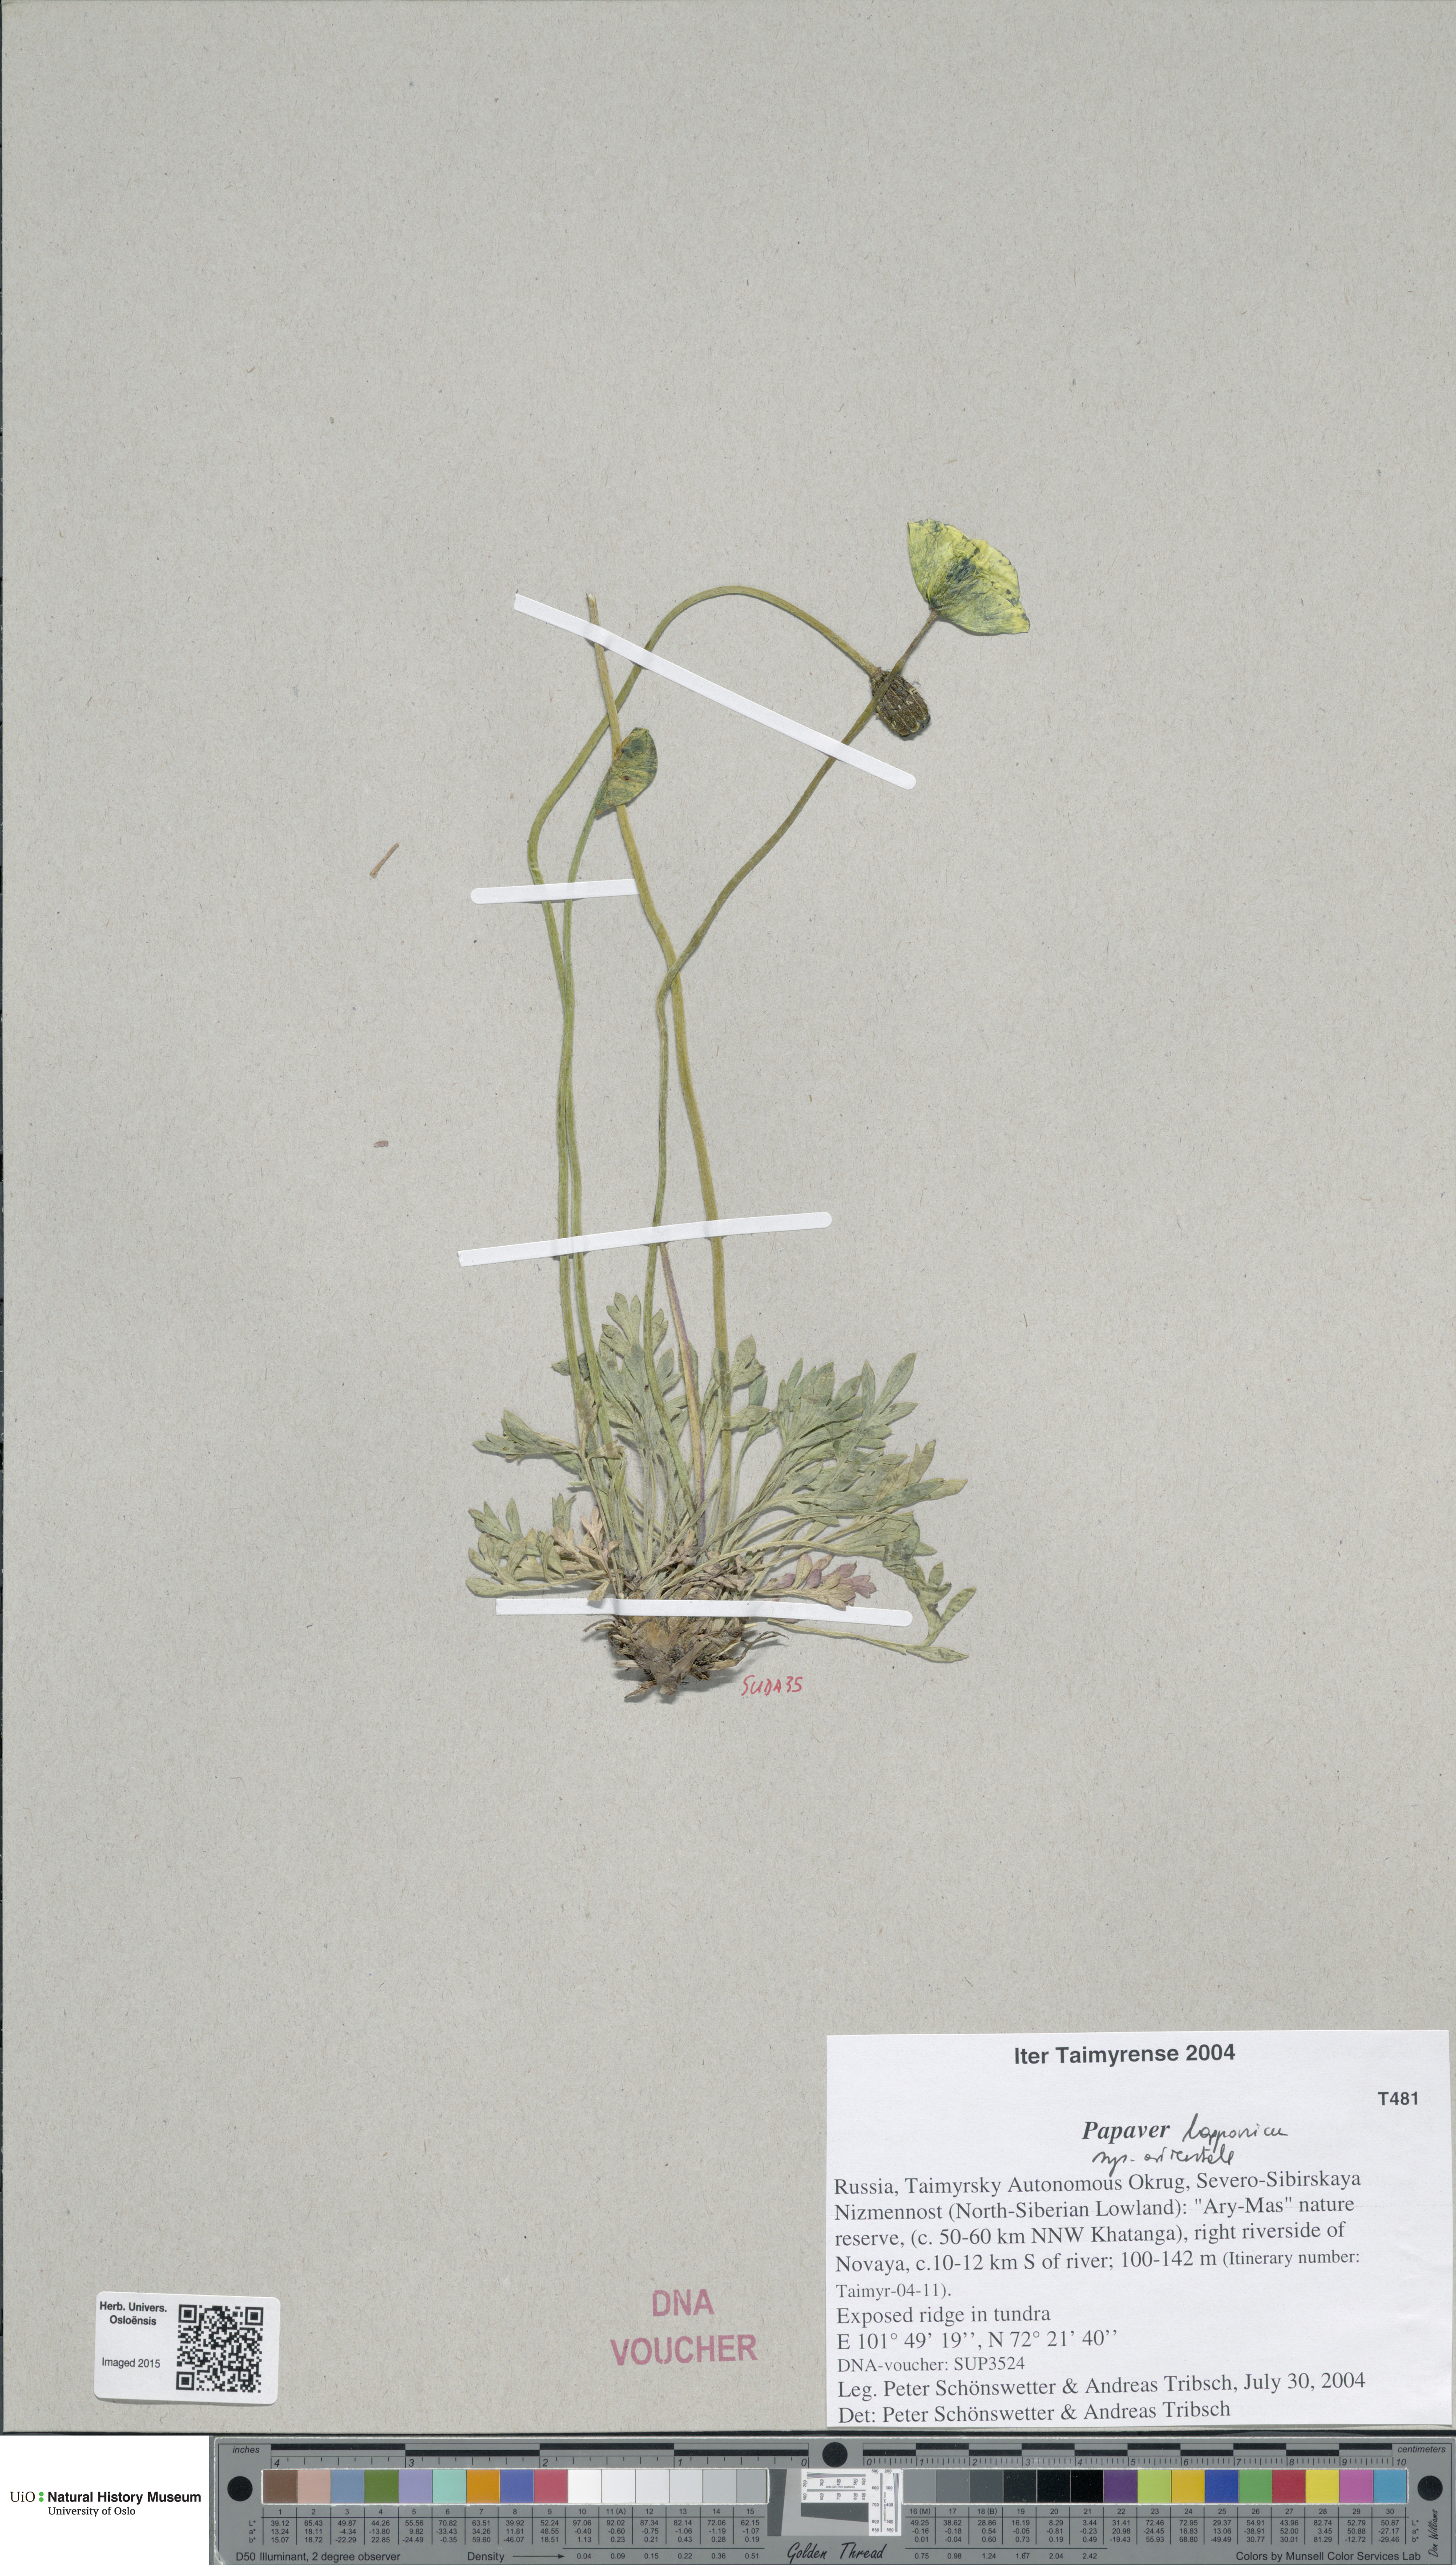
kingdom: Plantae
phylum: Tracheophyta
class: Magnoliopsida
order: Ranunculales
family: Papaveraceae
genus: Papaver
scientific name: Papaver lapponicum
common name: Lapland poppy
